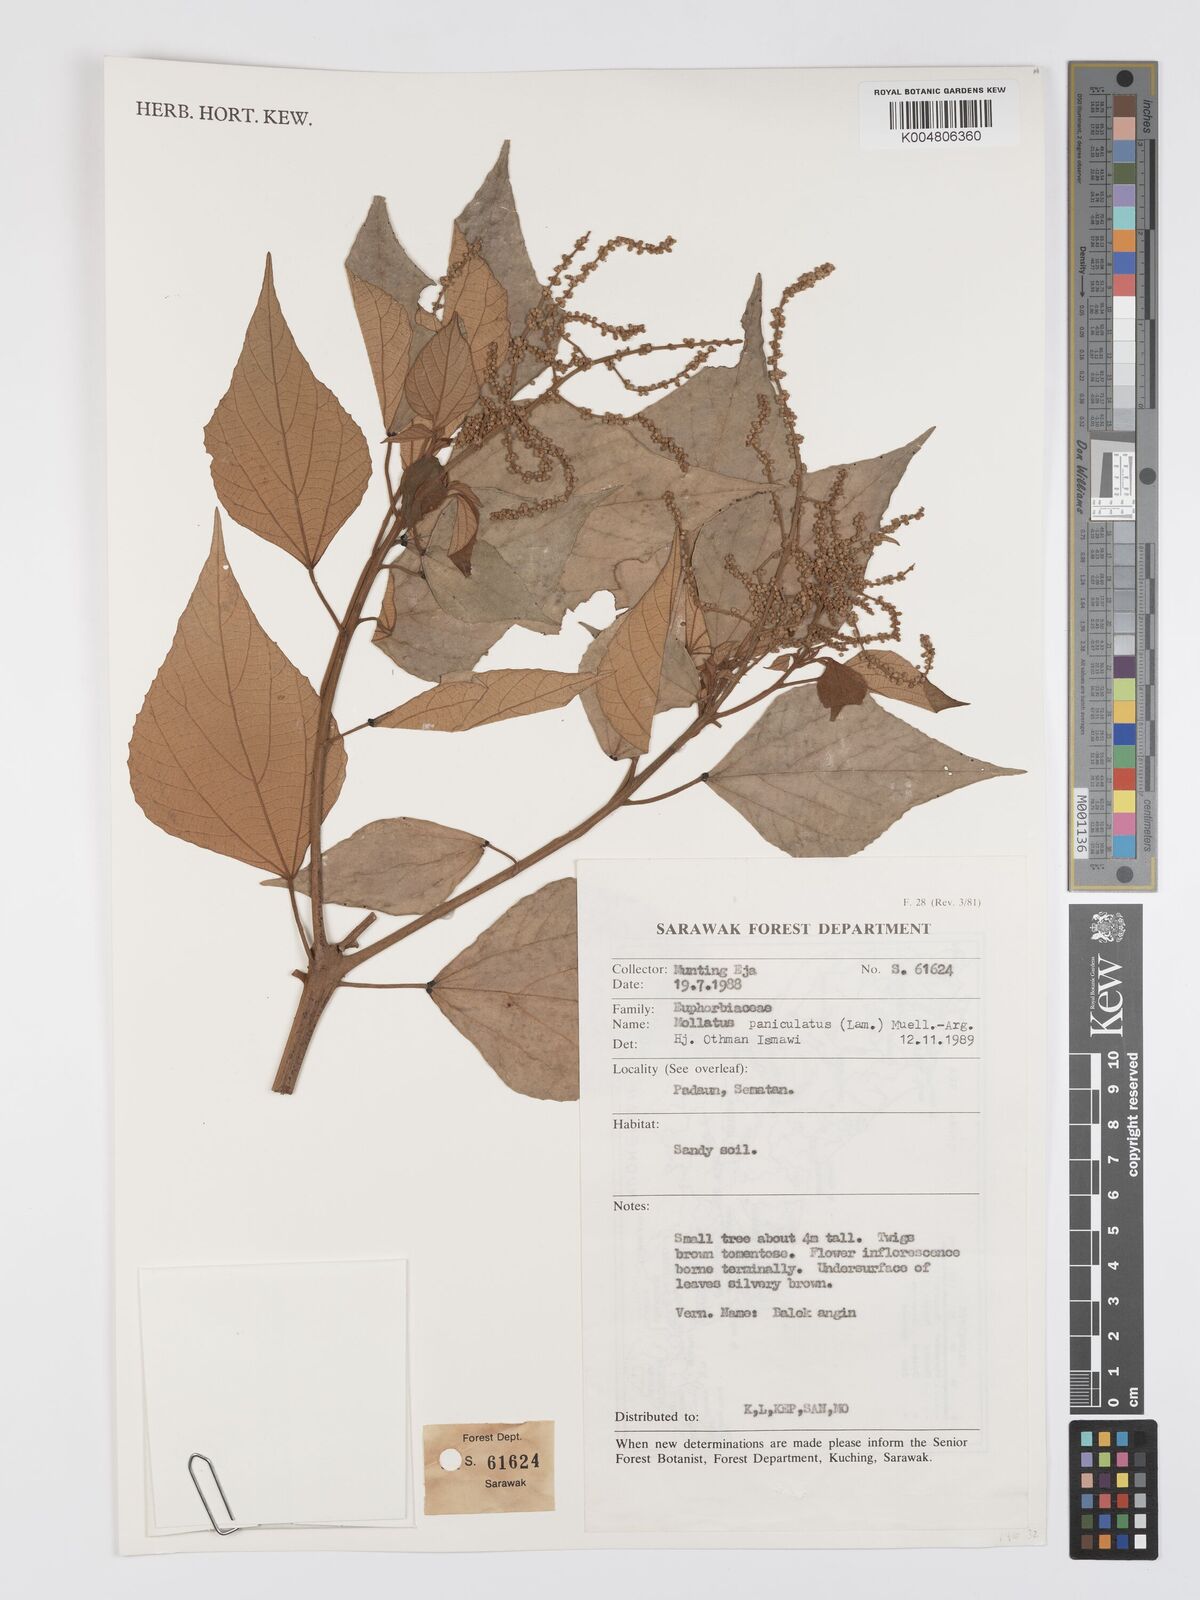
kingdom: Plantae
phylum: Tracheophyta
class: Magnoliopsida
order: Malpighiales
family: Euphorbiaceae
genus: Mallotus
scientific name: Mallotus paniculatus
